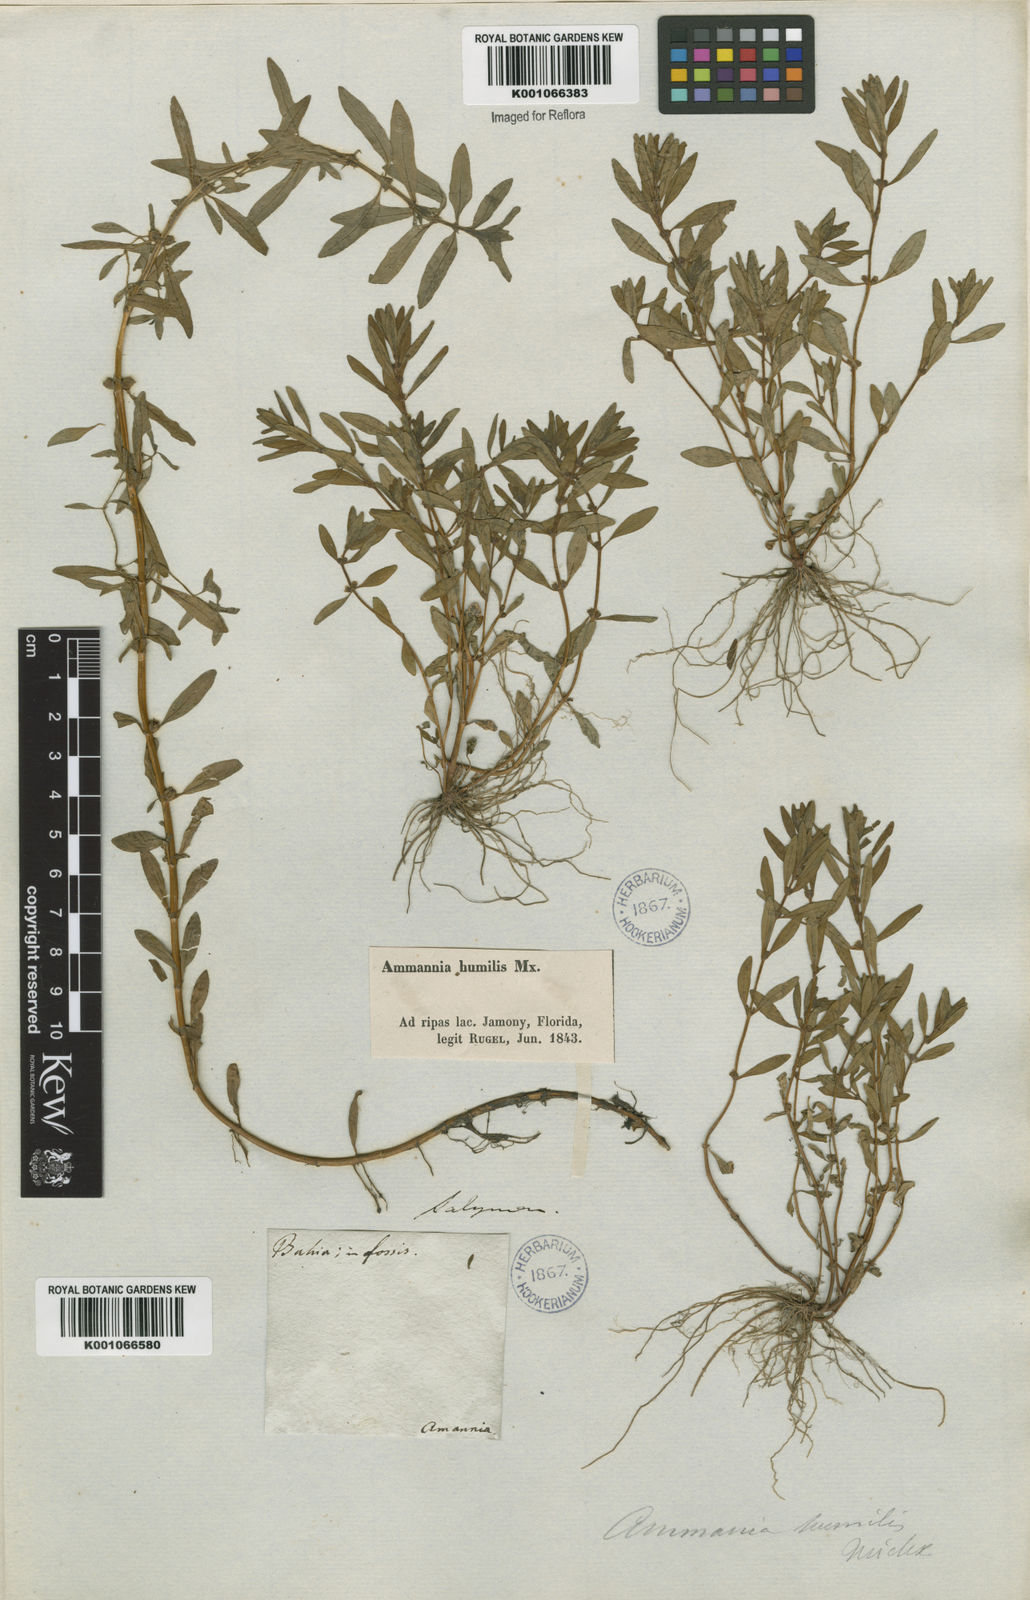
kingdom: Plantae
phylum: Tracheophyta
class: Magnoliopsida
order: Myrtales
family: Lythraceae
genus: Rotala
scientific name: Rotala ramosior
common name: Lowland rotala
